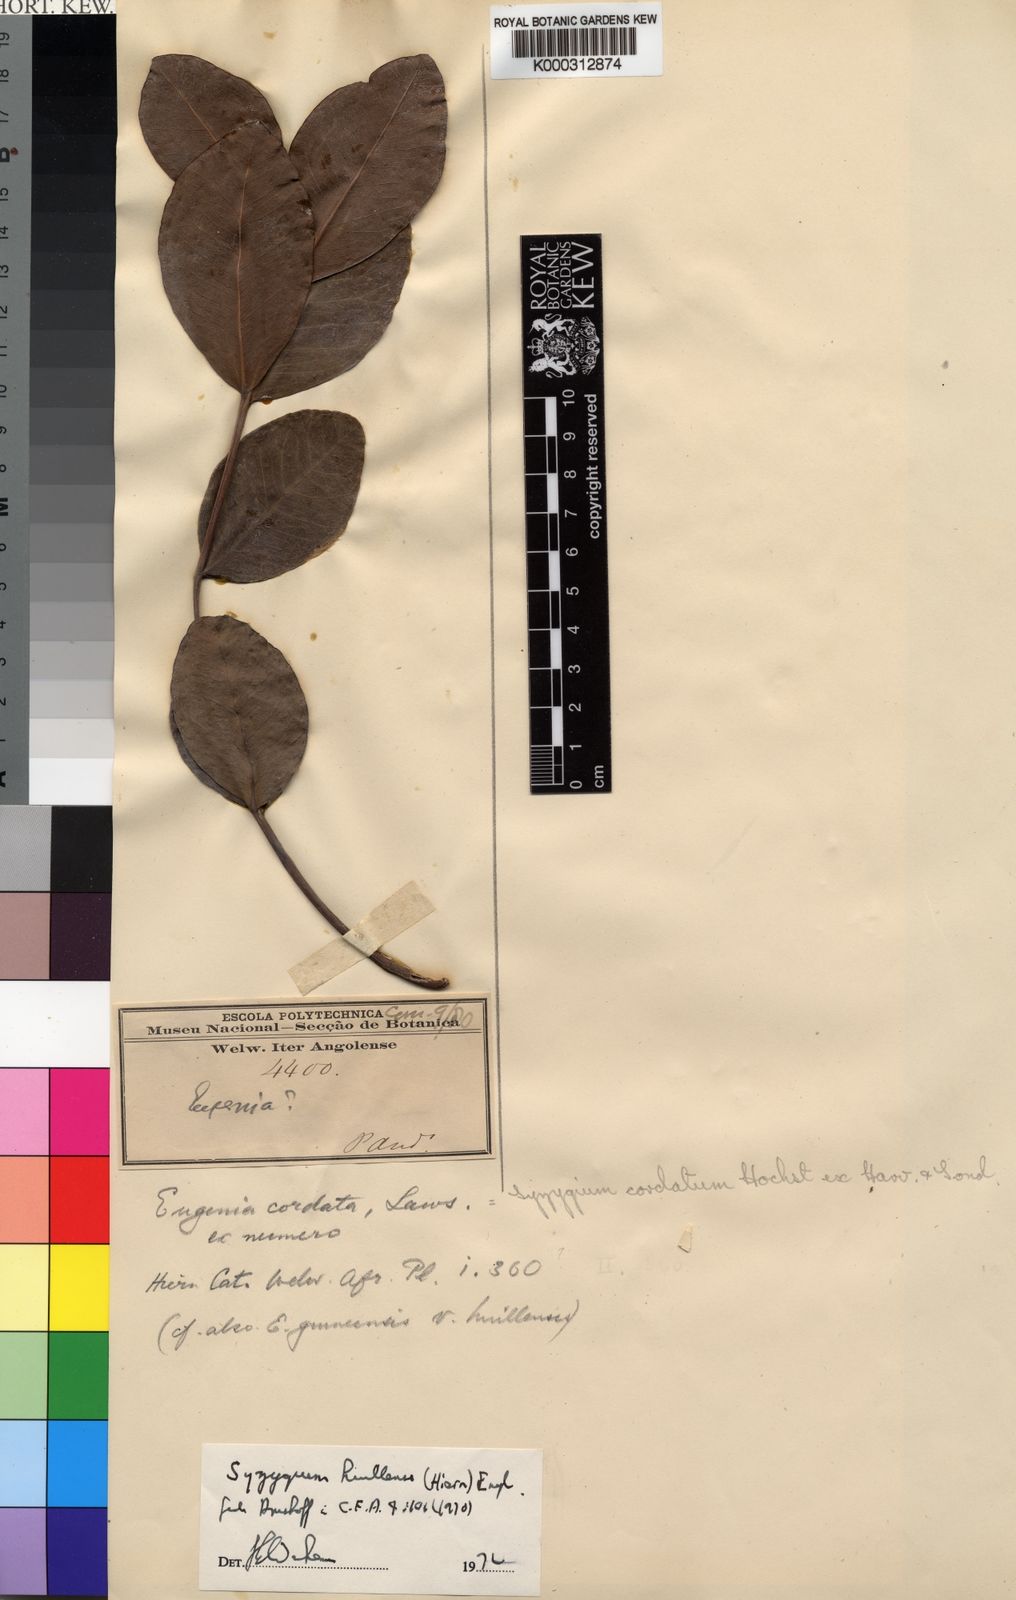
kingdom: Plantae
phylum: Tracheophyta
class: Magnoliopsida
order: Myrtales
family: Myrtaceae
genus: Syzygium
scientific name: Syzygium guineense
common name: Water-pear
